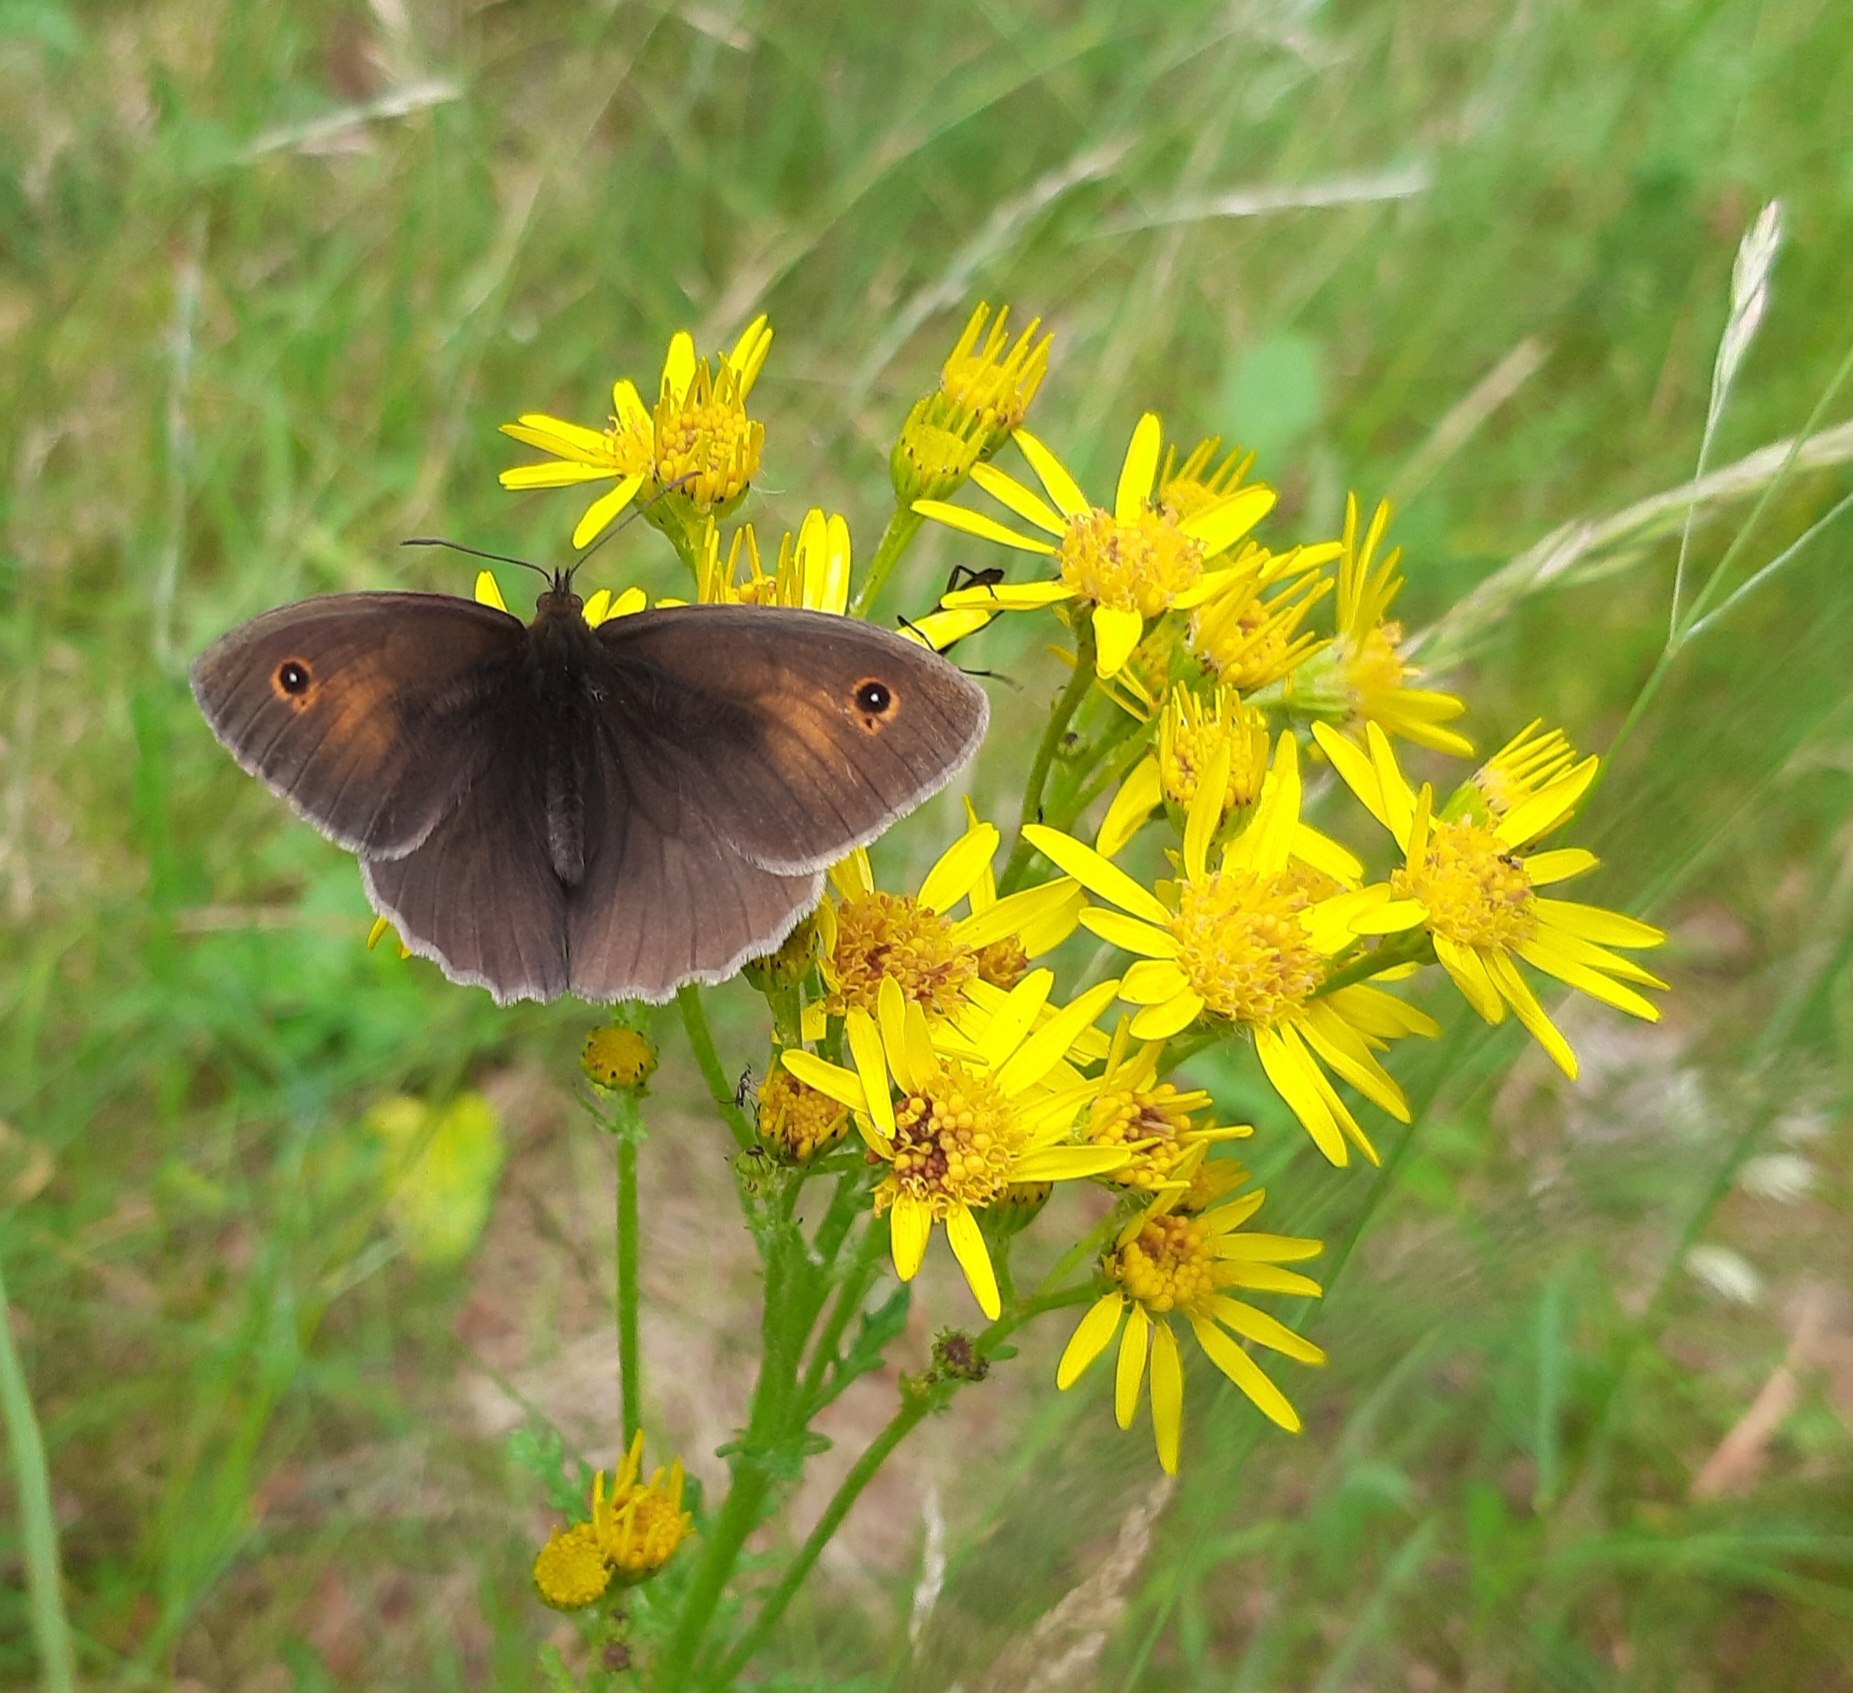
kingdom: Animalia
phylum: Arthropoda
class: Insecta
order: Lepidoptera
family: Nymphalidae
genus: Maniola
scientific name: Maniola jurtina
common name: Græsrandøje
